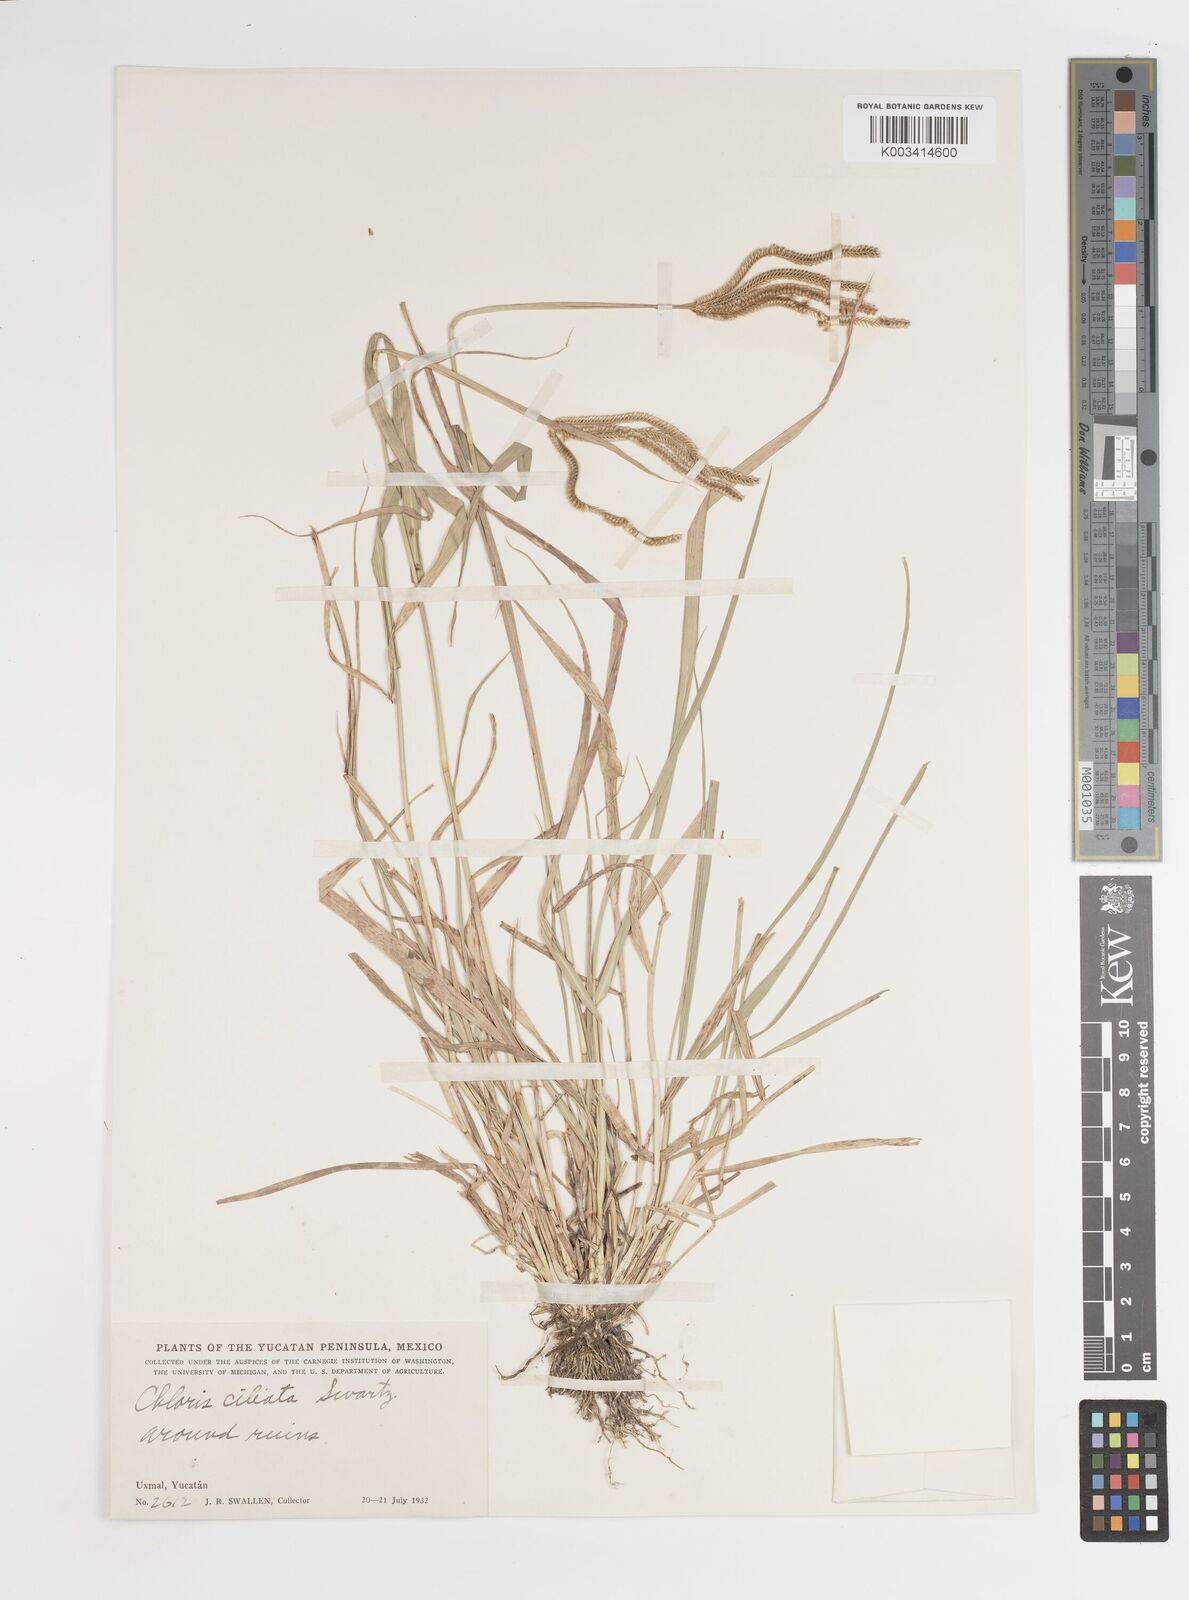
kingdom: Plantae
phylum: Tracheophyta
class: Liliopsida
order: Poales
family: Poaceae
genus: Stapfochloa
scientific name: Stapfochloa ciliata
